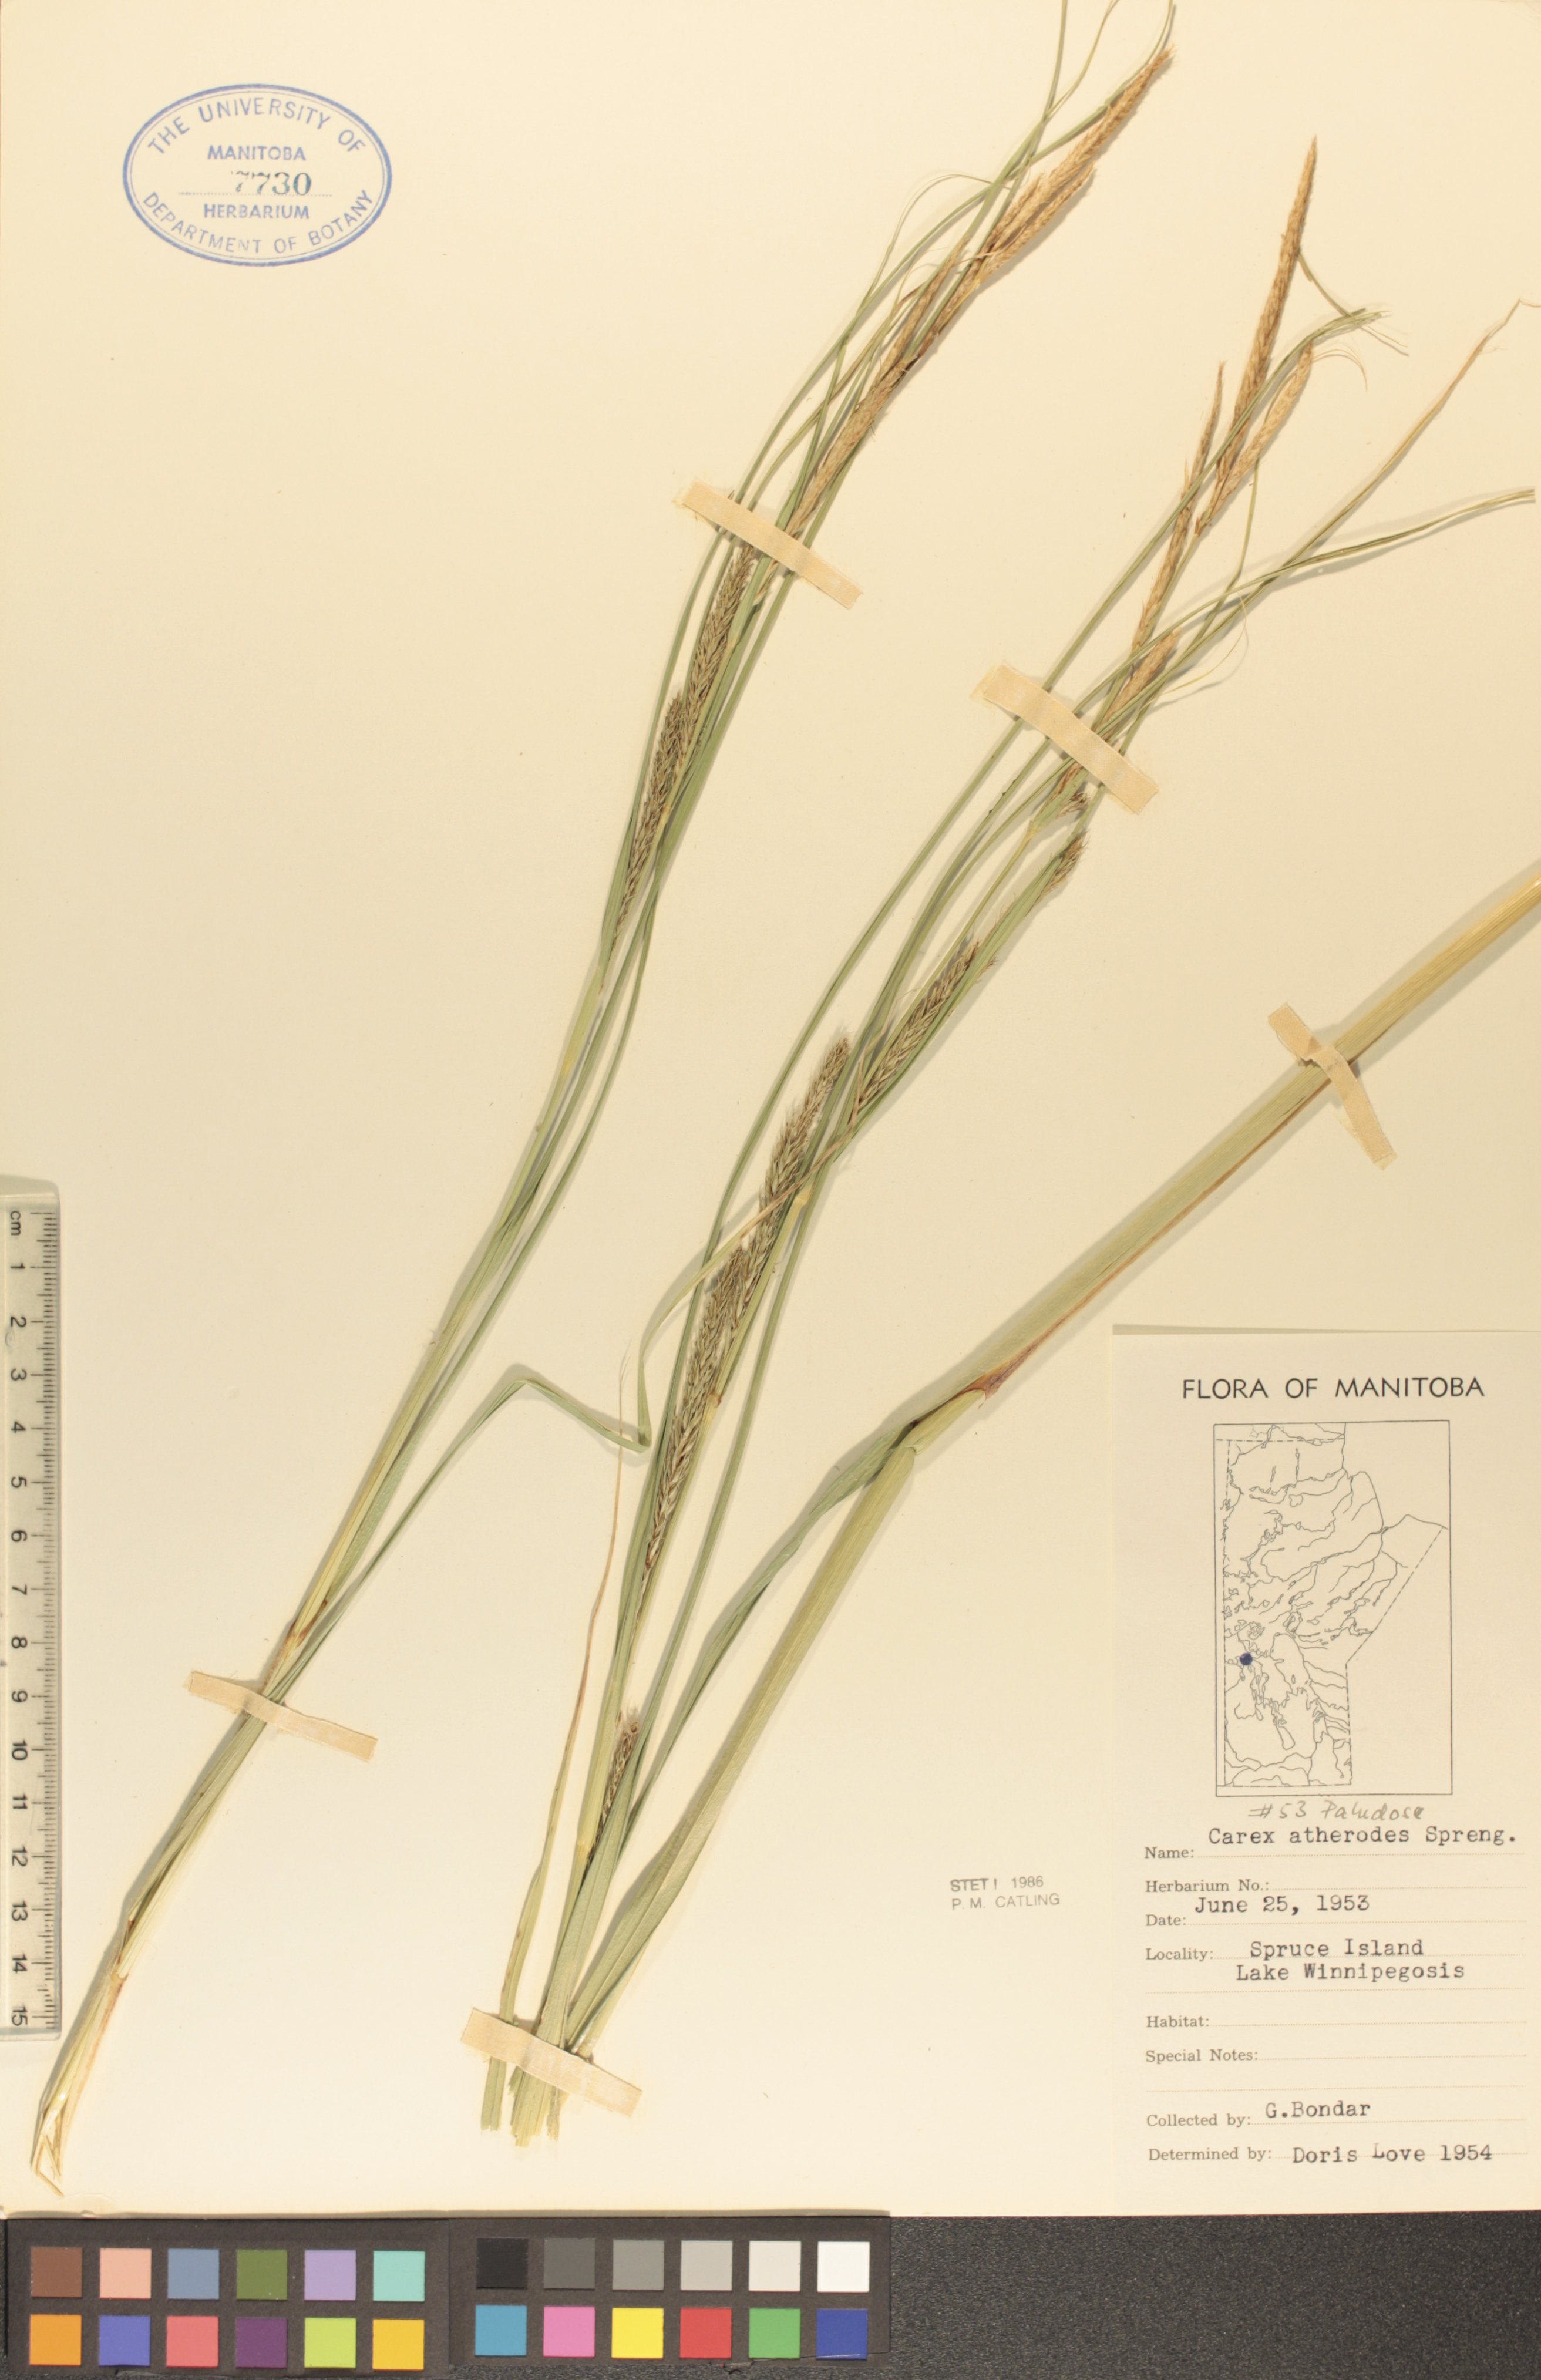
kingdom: Plantae
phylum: Tracheophyta
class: Liliopsida
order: Poales
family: Cyperaceae
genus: Carex
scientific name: Carex atherodes
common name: Wheat sedge
